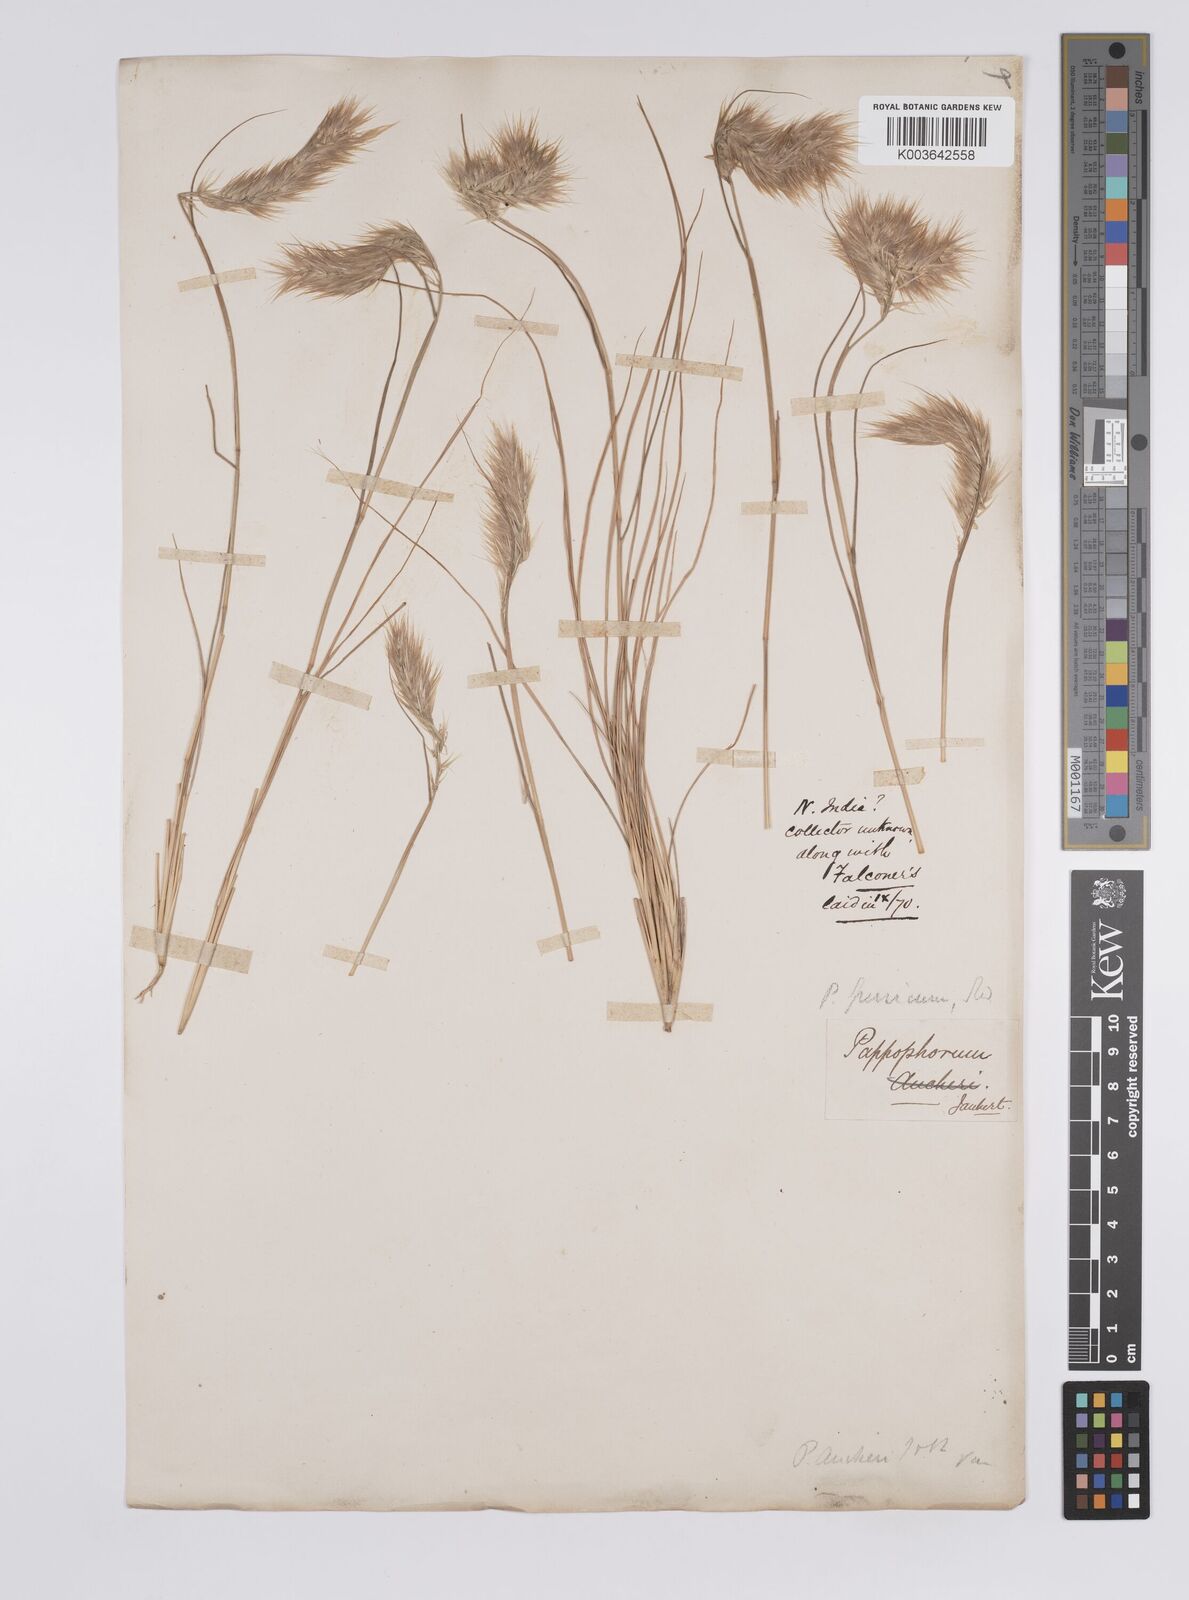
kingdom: Plantae
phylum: Tracheophyta
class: Liliopsida
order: Poales
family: Poaceae
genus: Enneapogon
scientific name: Enneapogon persicus
